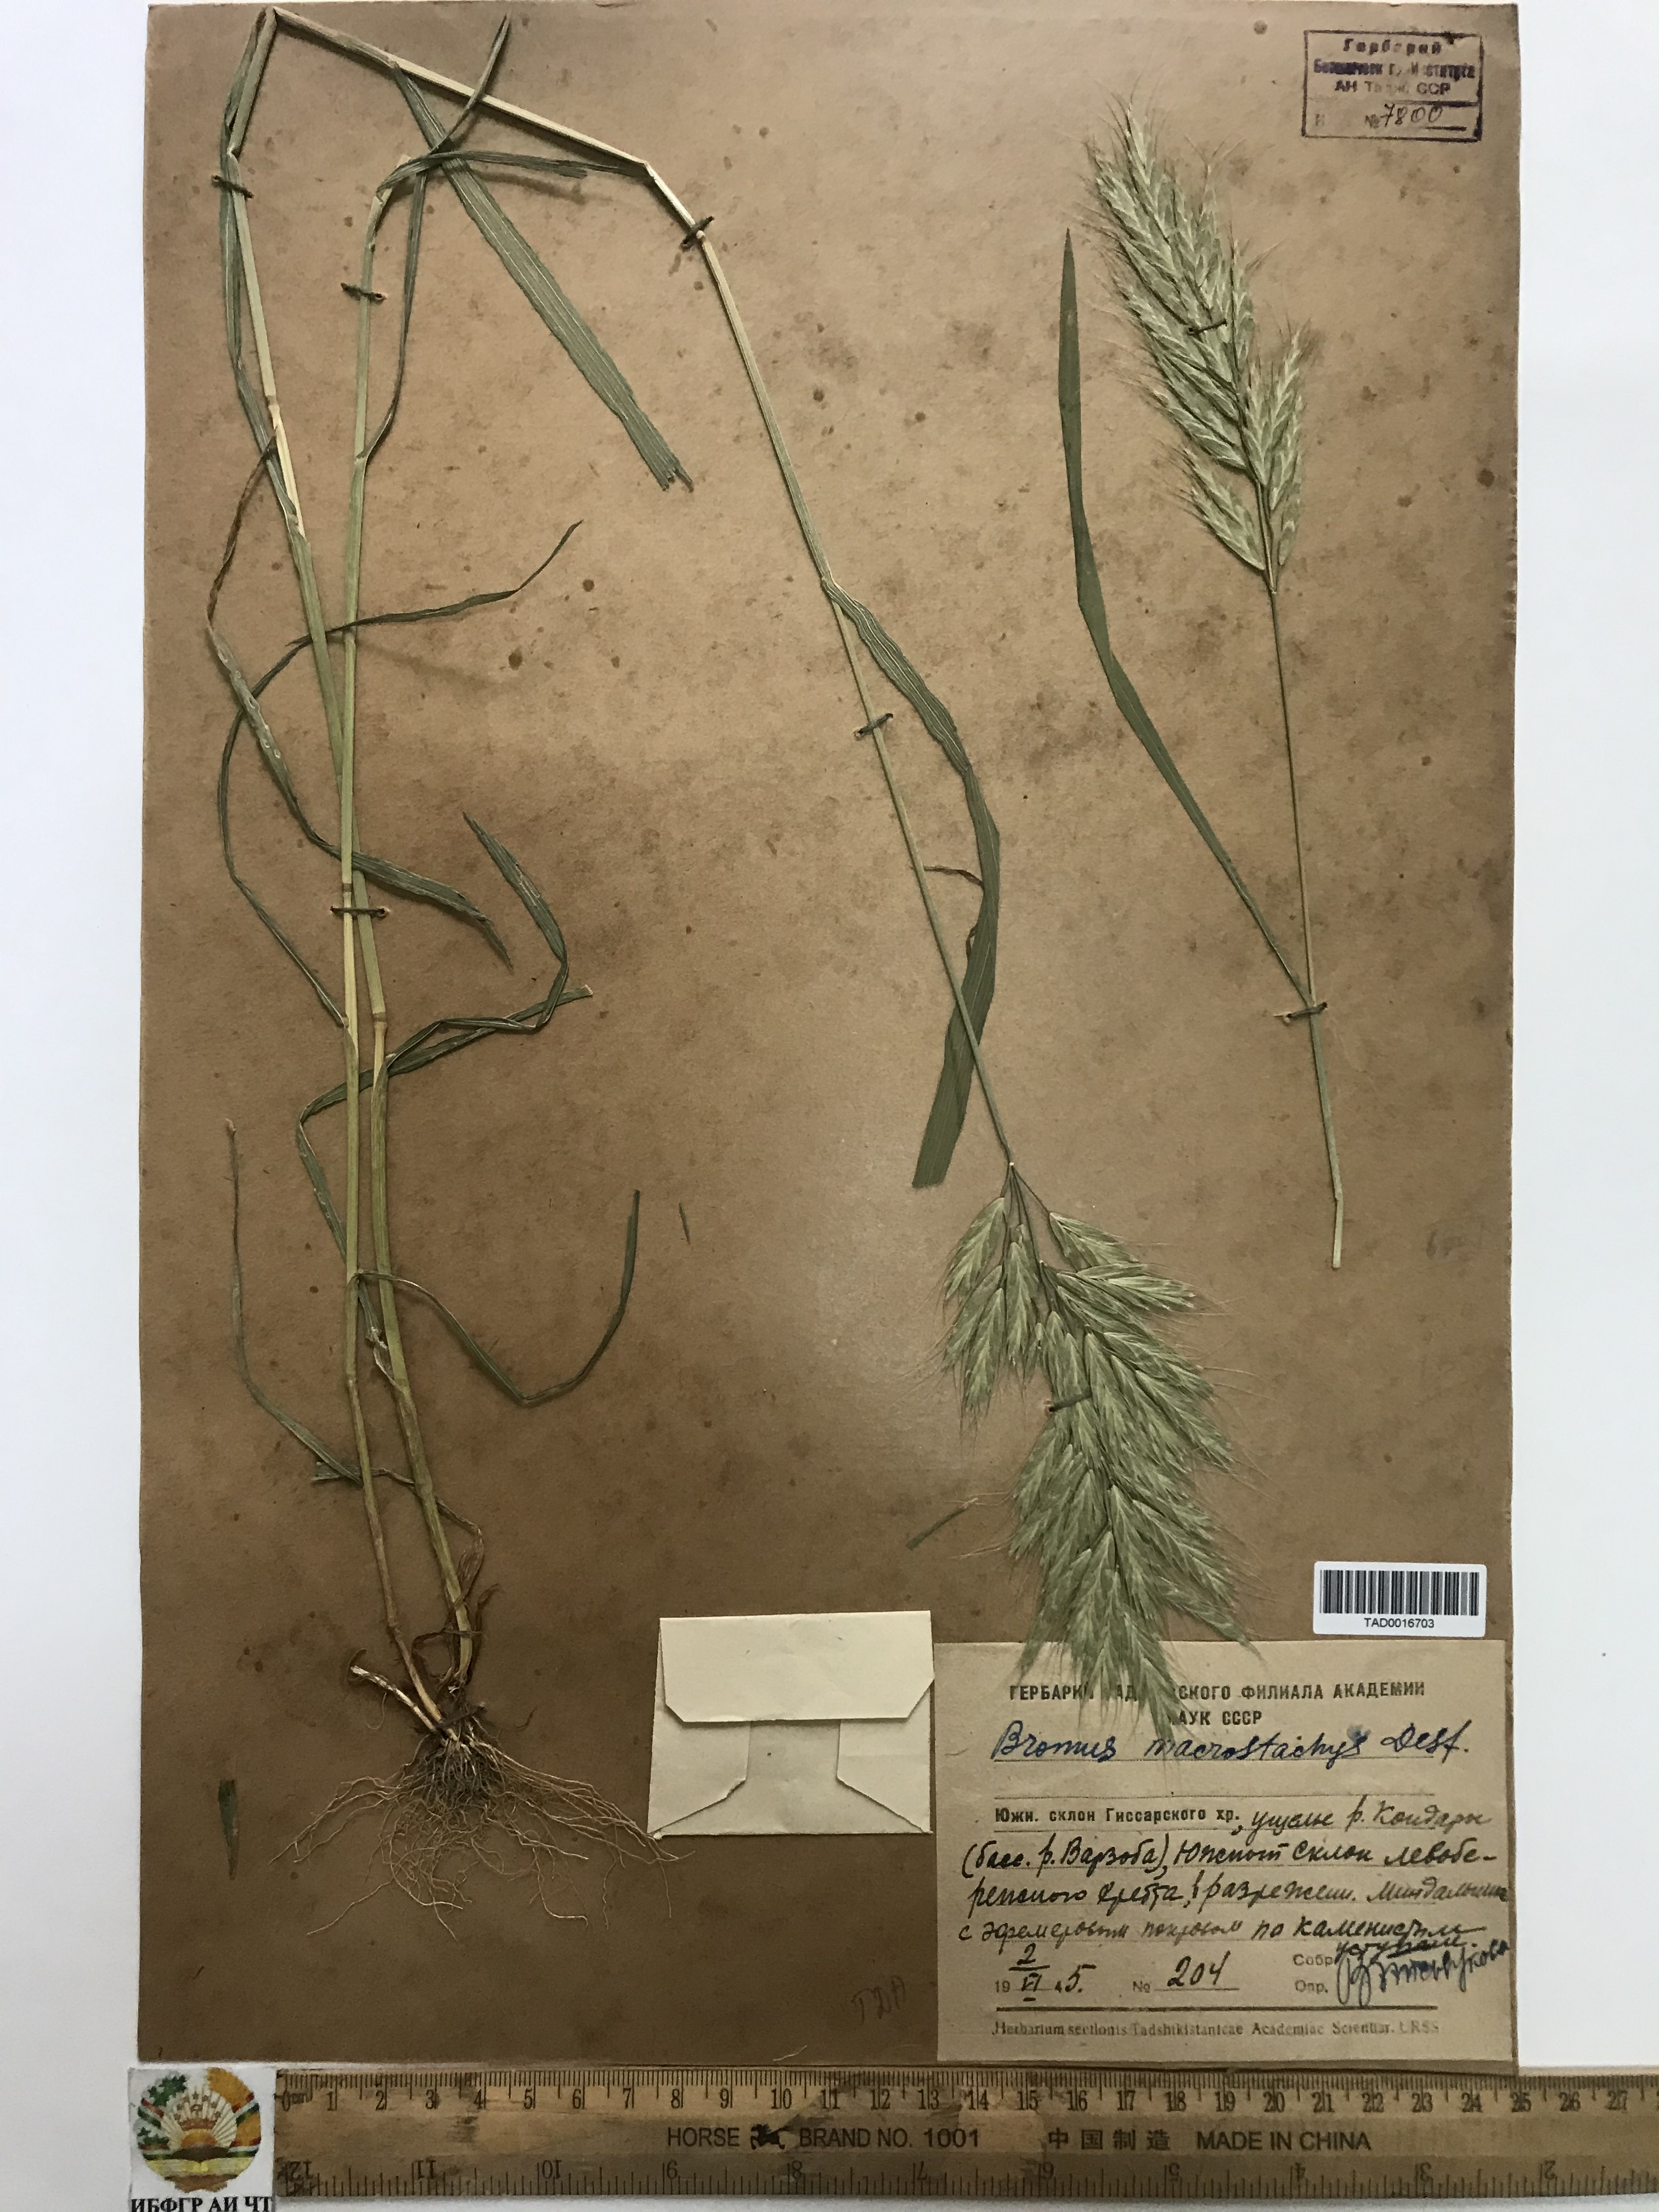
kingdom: Plantae
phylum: Tracheophyta
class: Liliopsida
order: Poales
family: Poaceae
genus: Bromus
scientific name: Bromus lanceolatus
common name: Mediterranean brome
